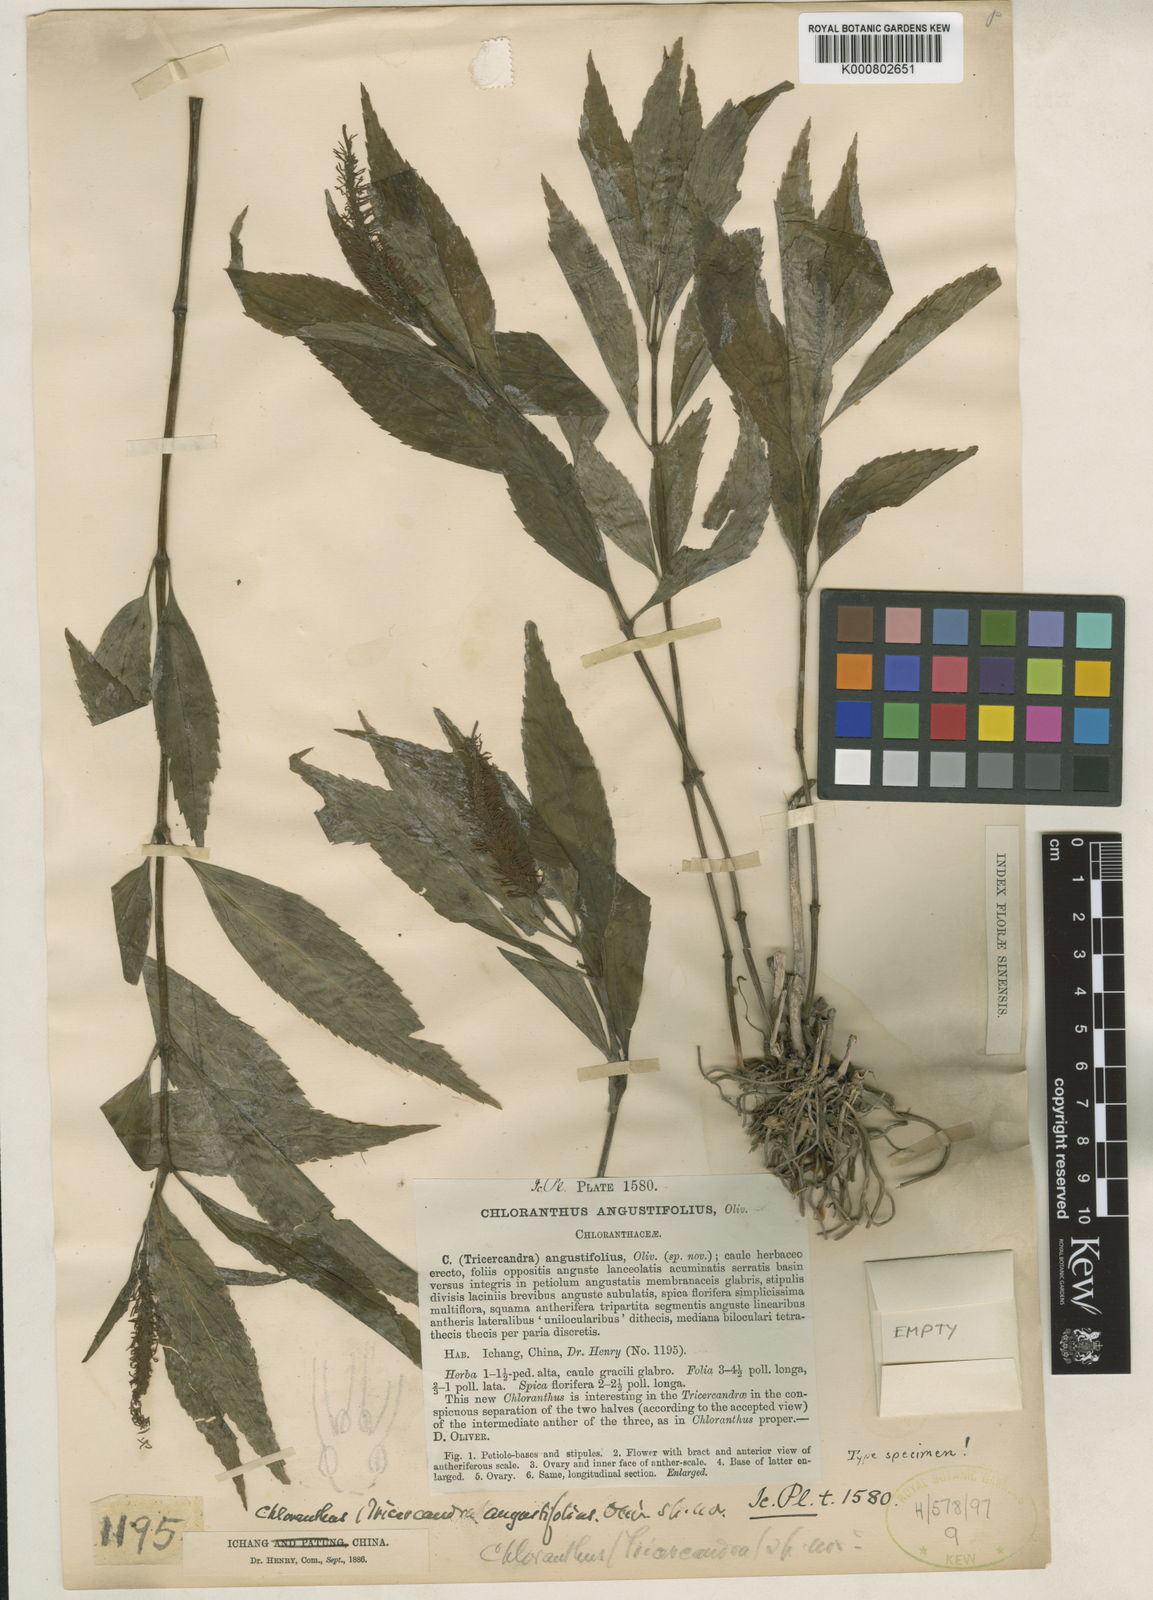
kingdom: Plantae
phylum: Tracheophyta
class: Magnoliopsida
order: Chloranthales
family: Chloranthaceae
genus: Chloranthus
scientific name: Chloranthus angustifolius
